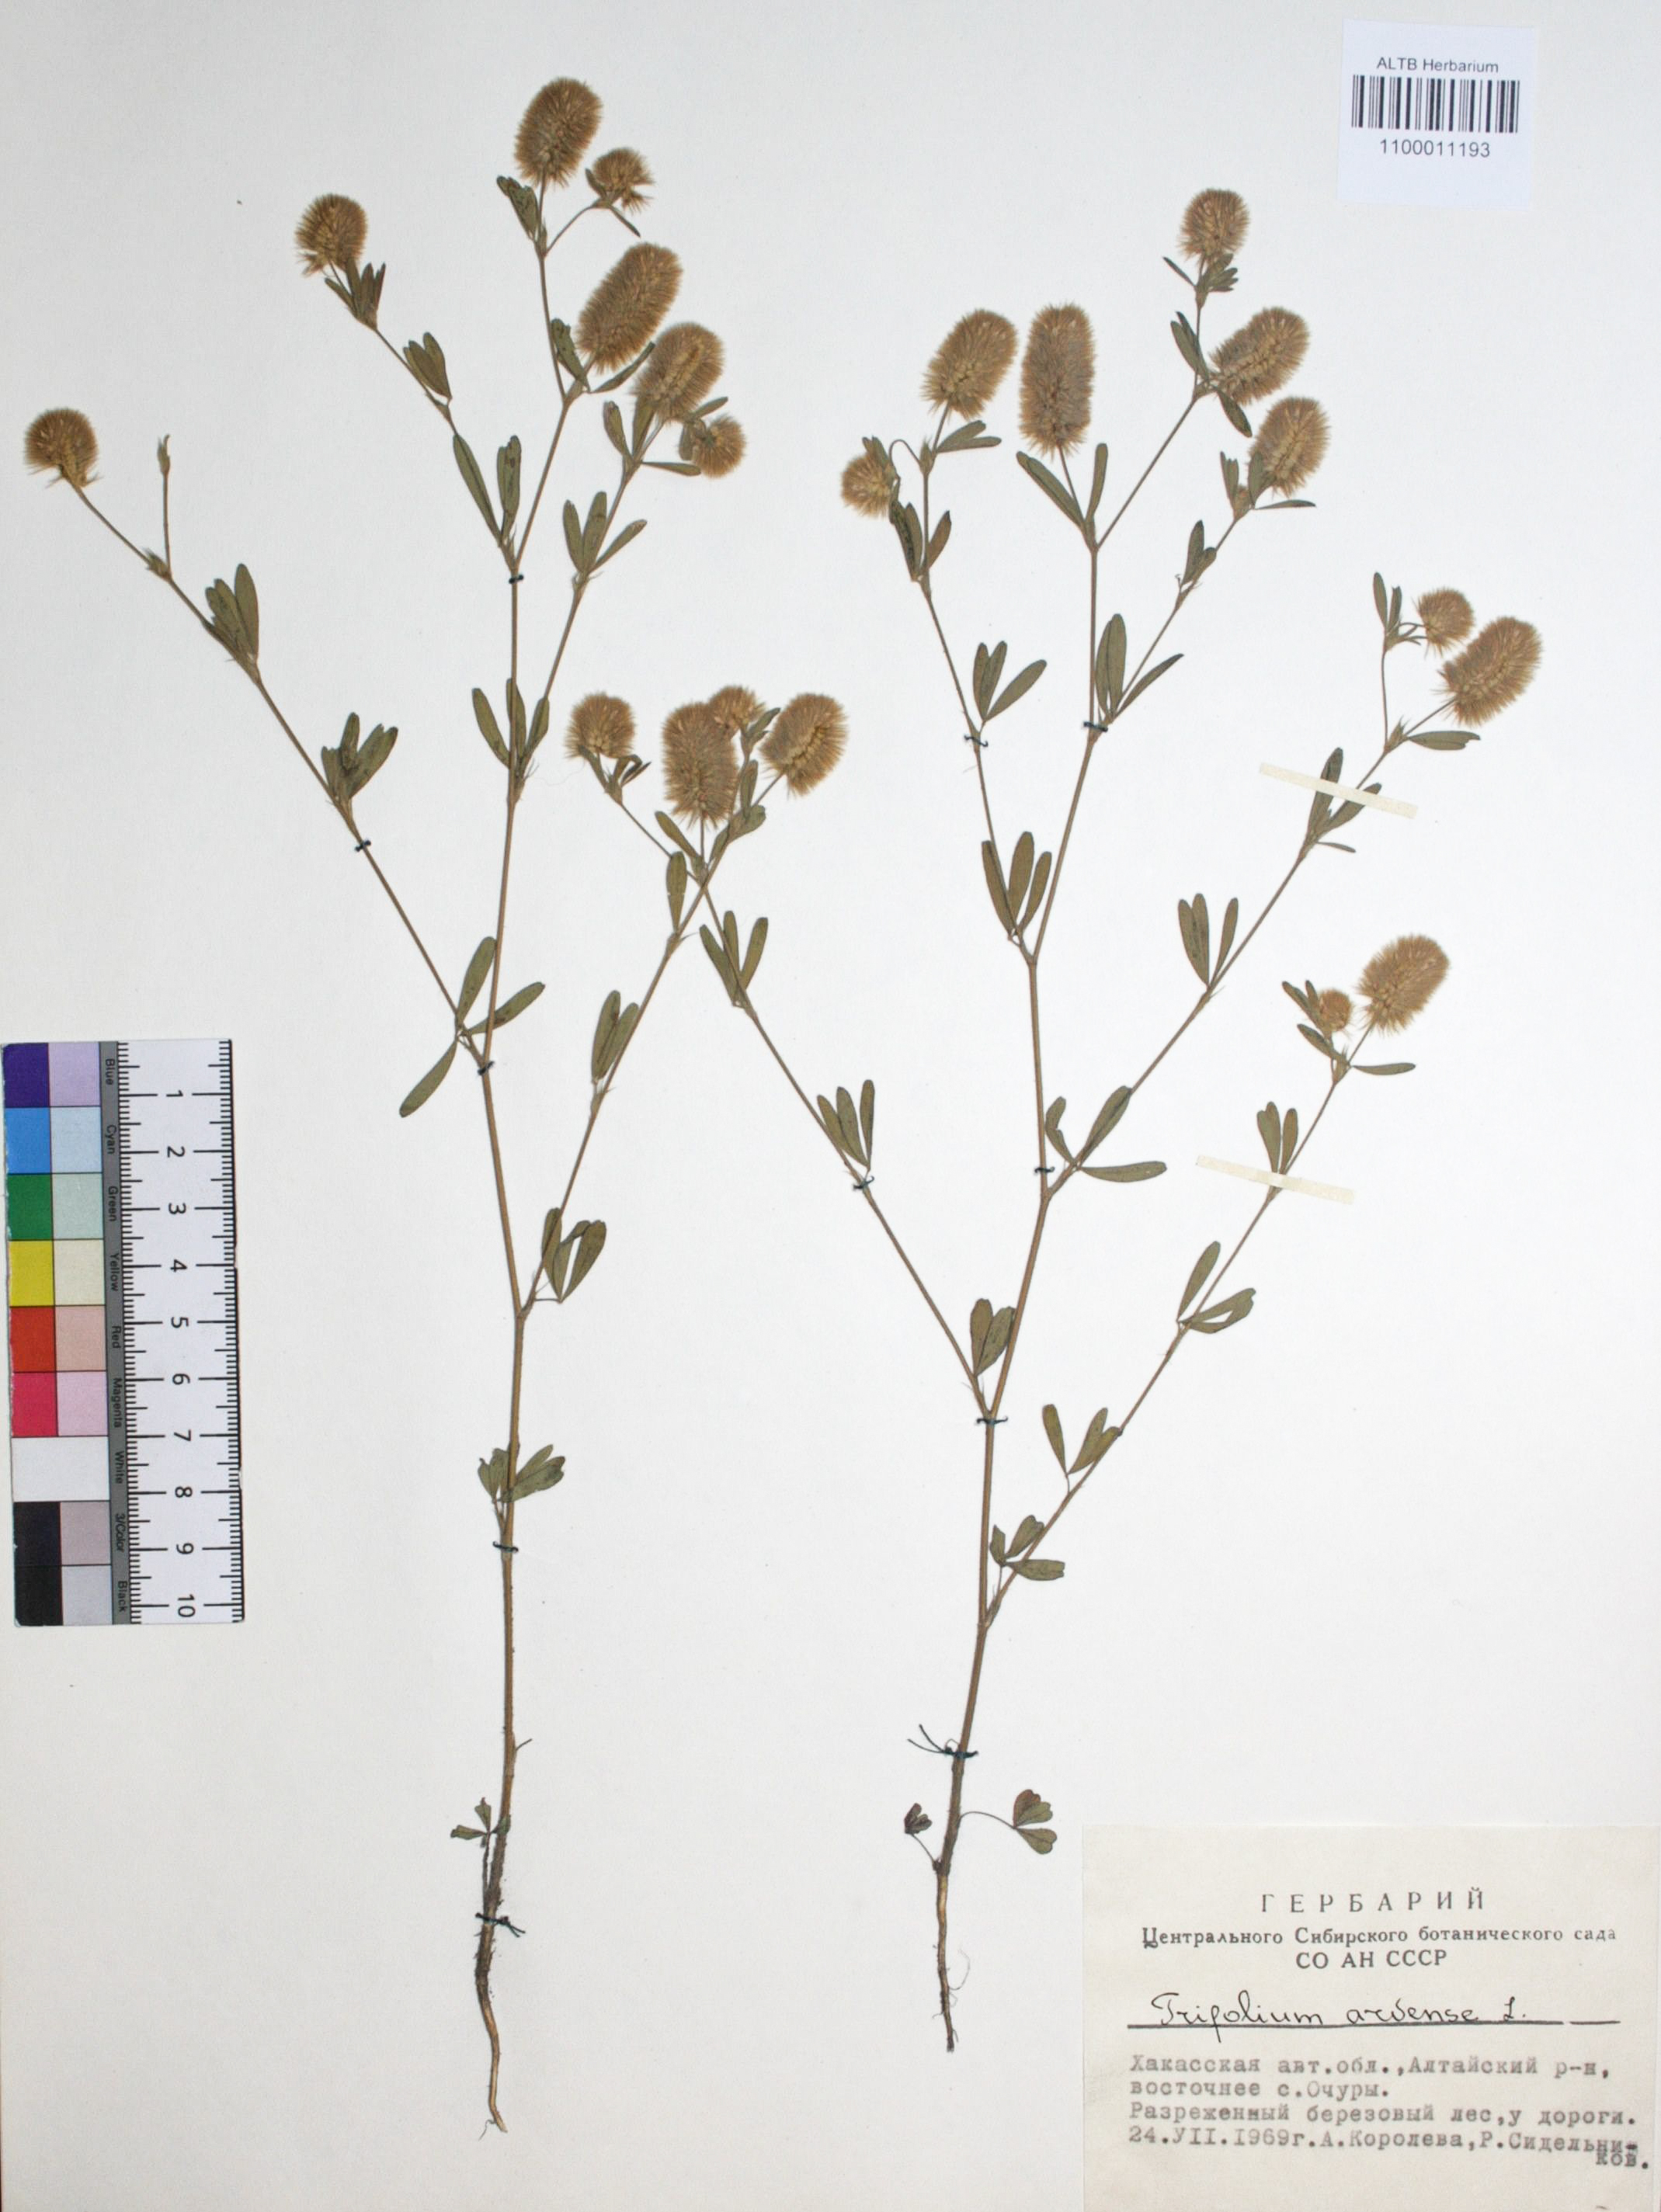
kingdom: Plantae
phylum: Tracheophyta
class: Magnoliopsida
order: Fabales
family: Fabaceae
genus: Trifolium
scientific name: Trifolium arvense
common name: Hare's-foot clover
